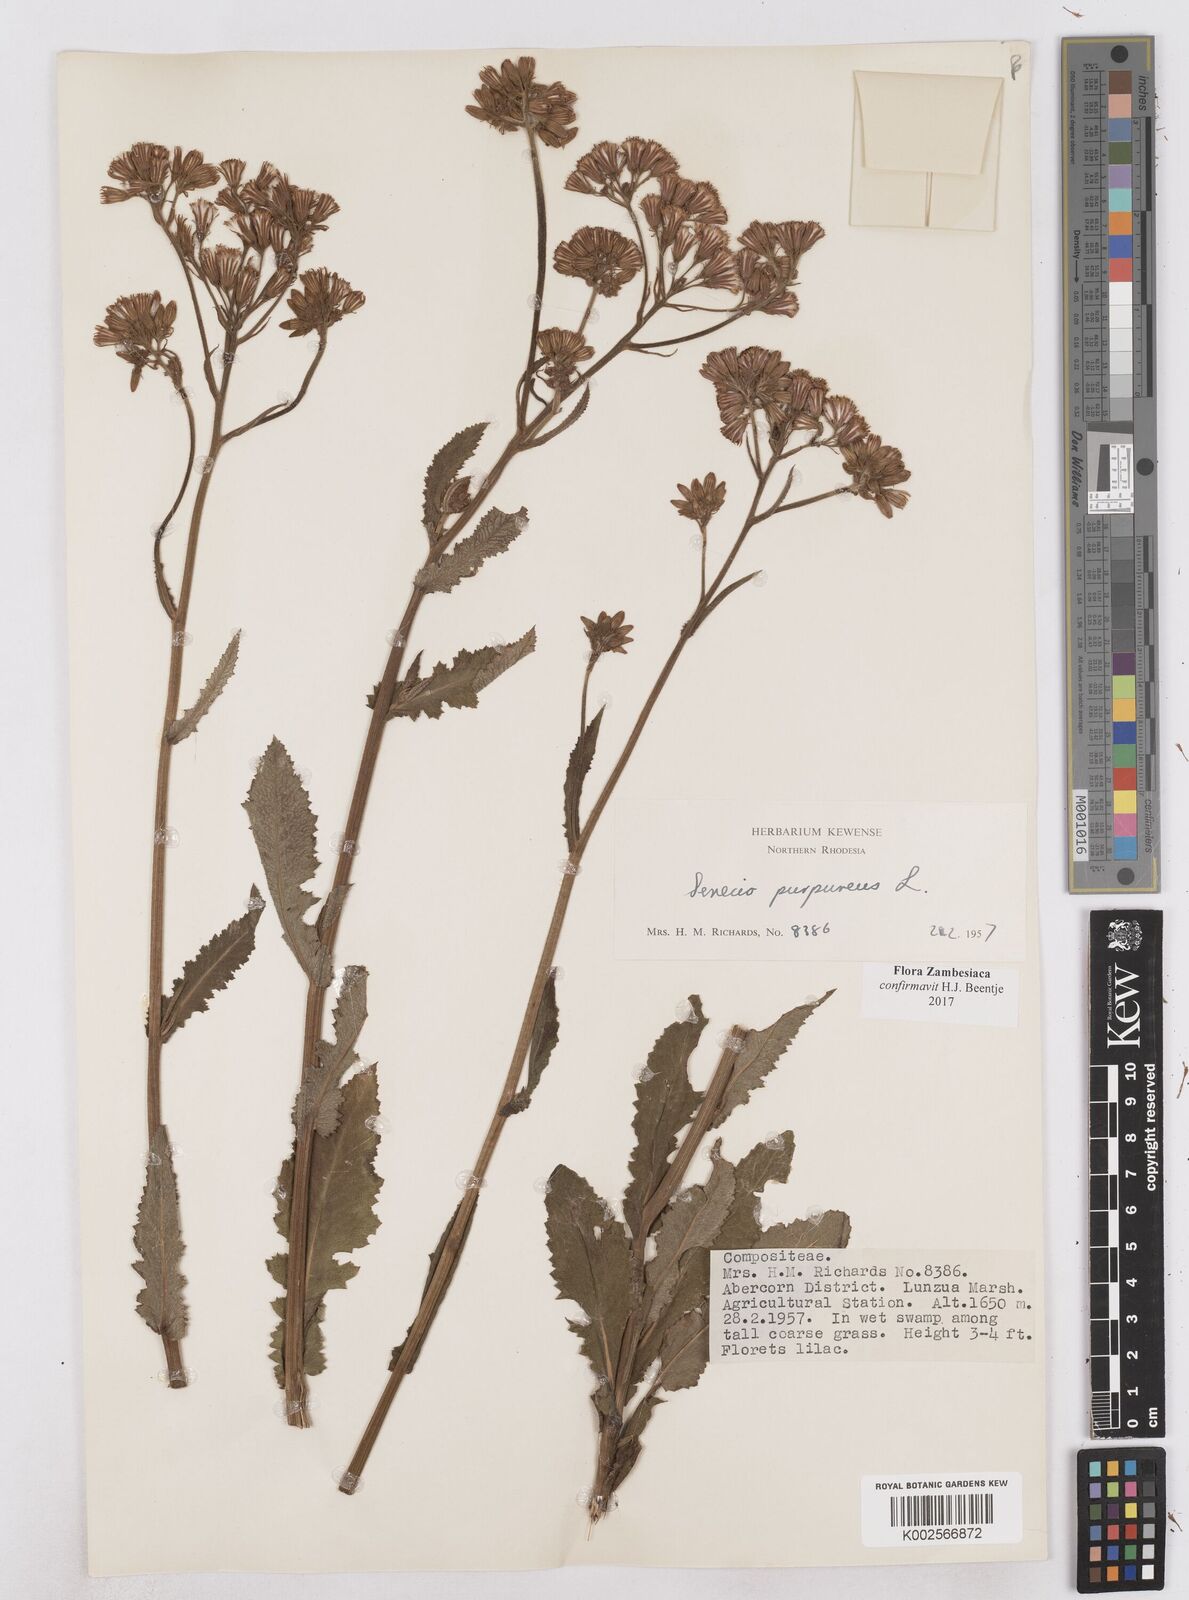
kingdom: Plantae
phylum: Tracheophyta
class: Magnoliopsida
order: Asterales
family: Asteraceae
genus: Senecio
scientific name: Senecio purpureus
